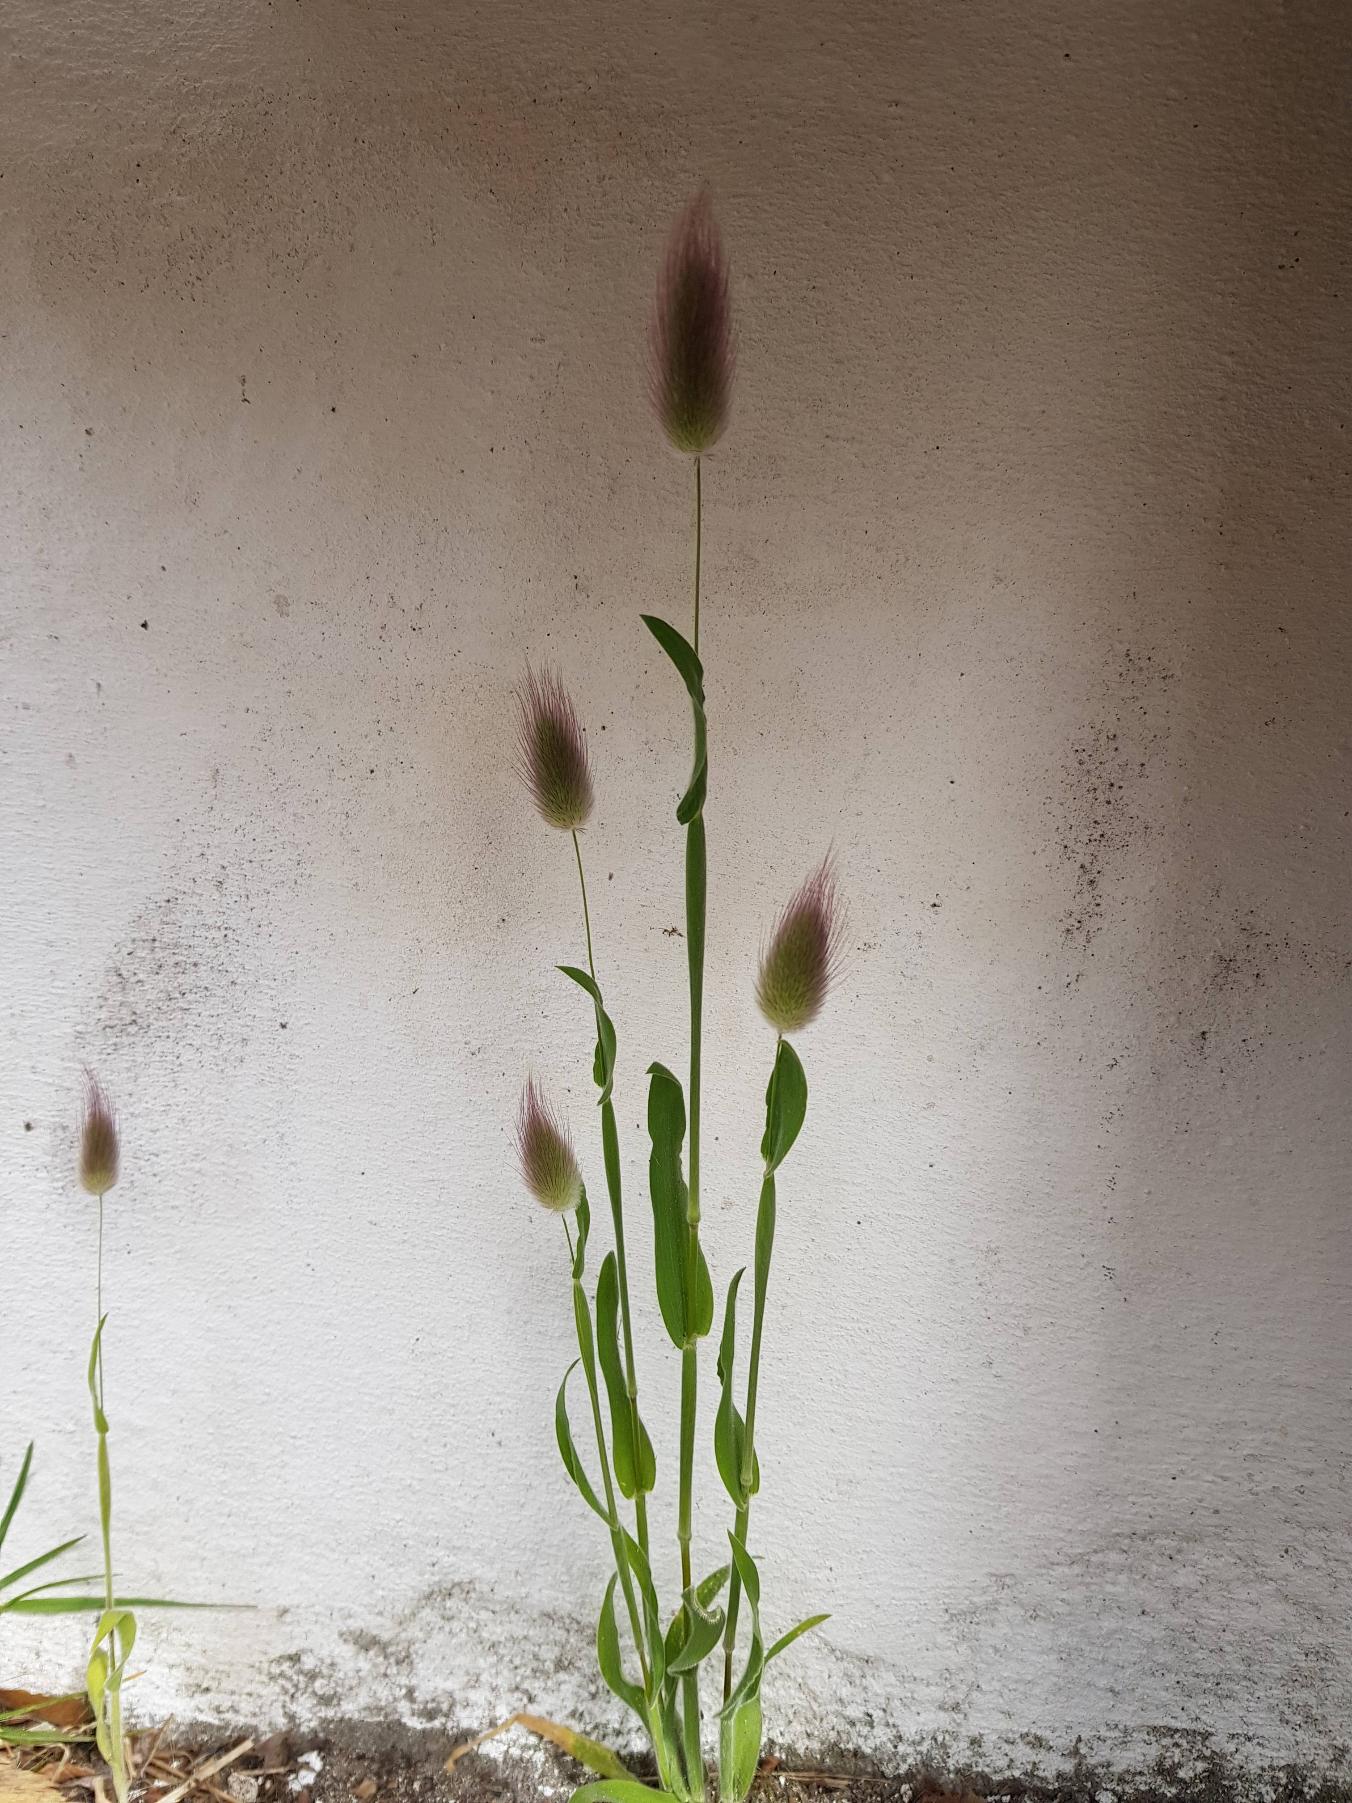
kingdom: Plantae
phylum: Tracheophyta
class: Liliopsida
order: Poales
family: Poaceae
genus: Lagurus
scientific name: Lagurus ovatus
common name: Harehale
